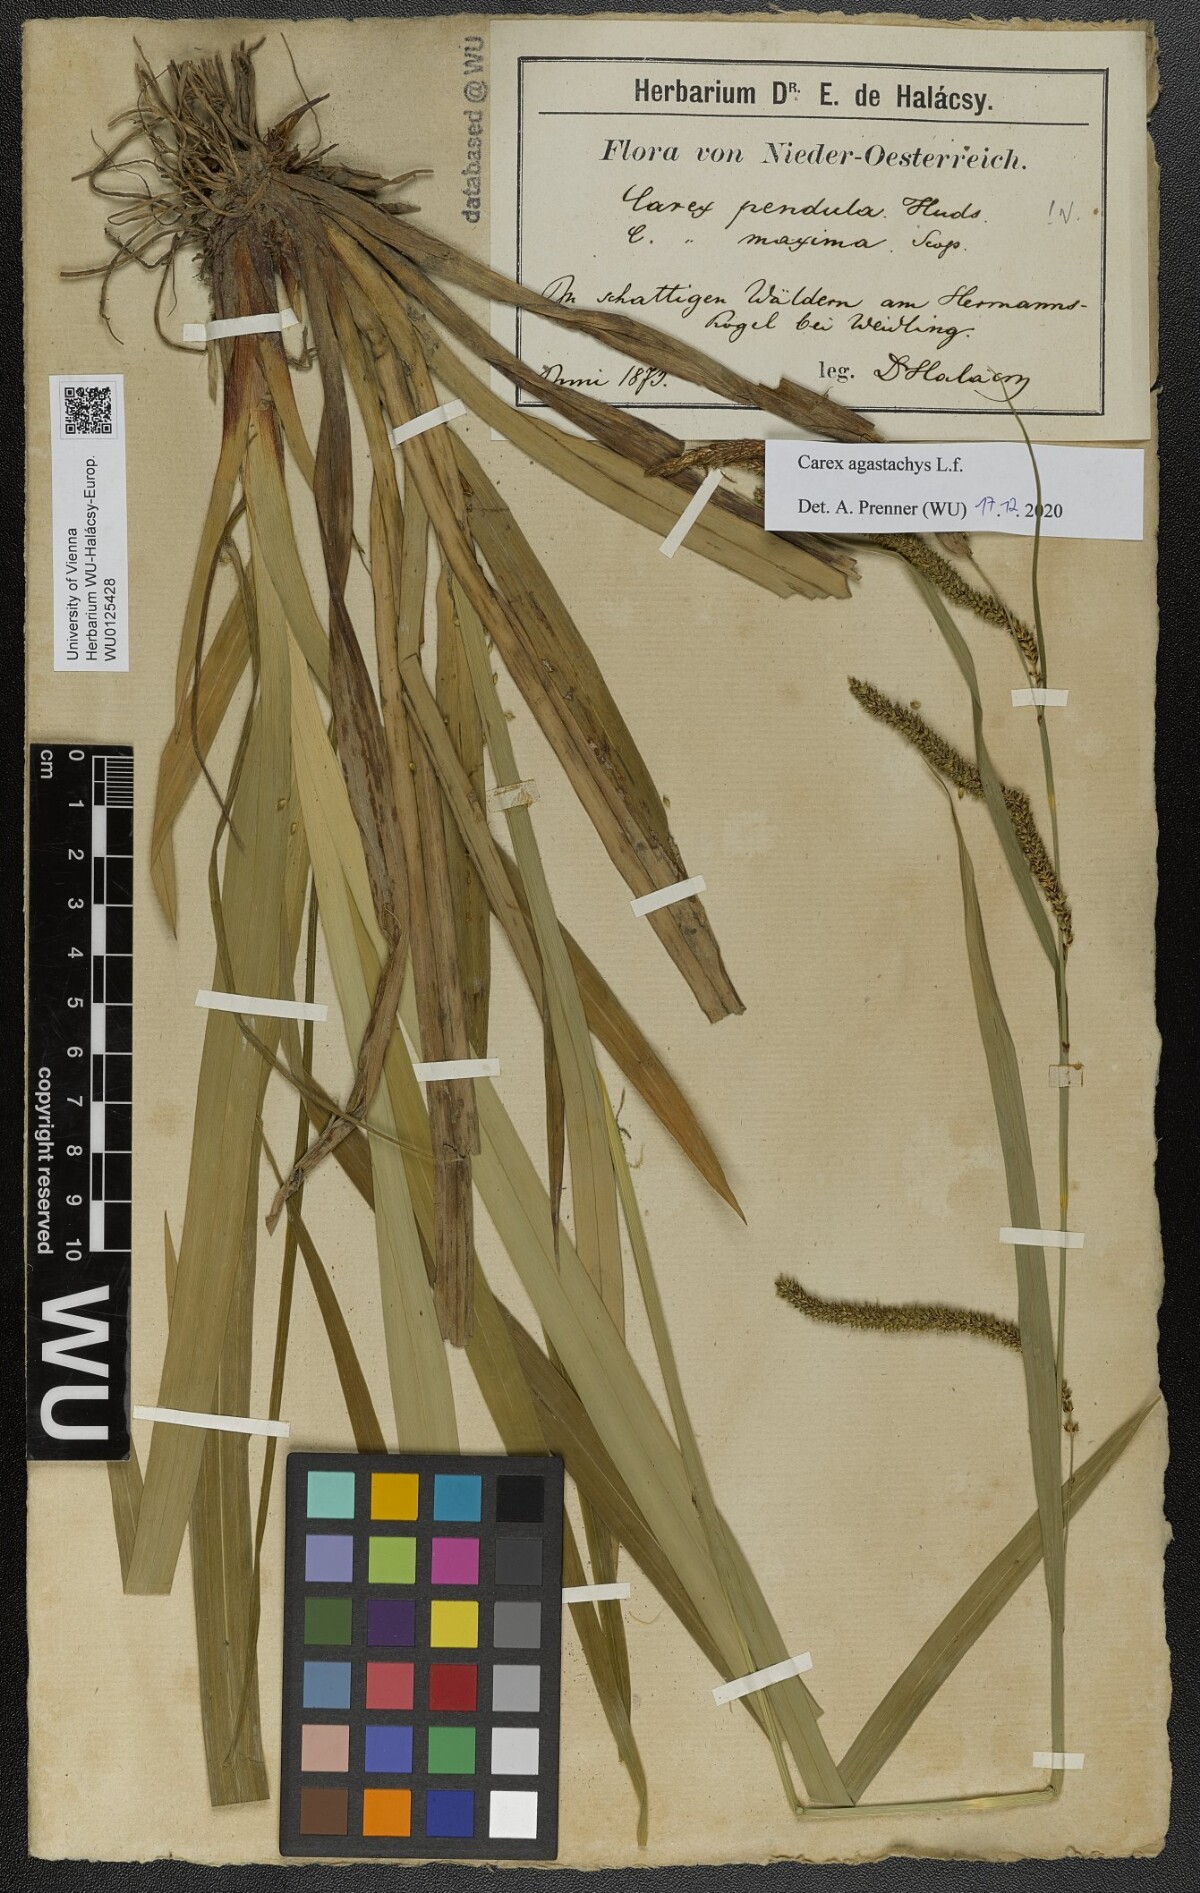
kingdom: Plantae
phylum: Tracheophyta
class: Liliopsida
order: Poales
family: Cyperaceae
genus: Carex
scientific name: Carex agastachys
